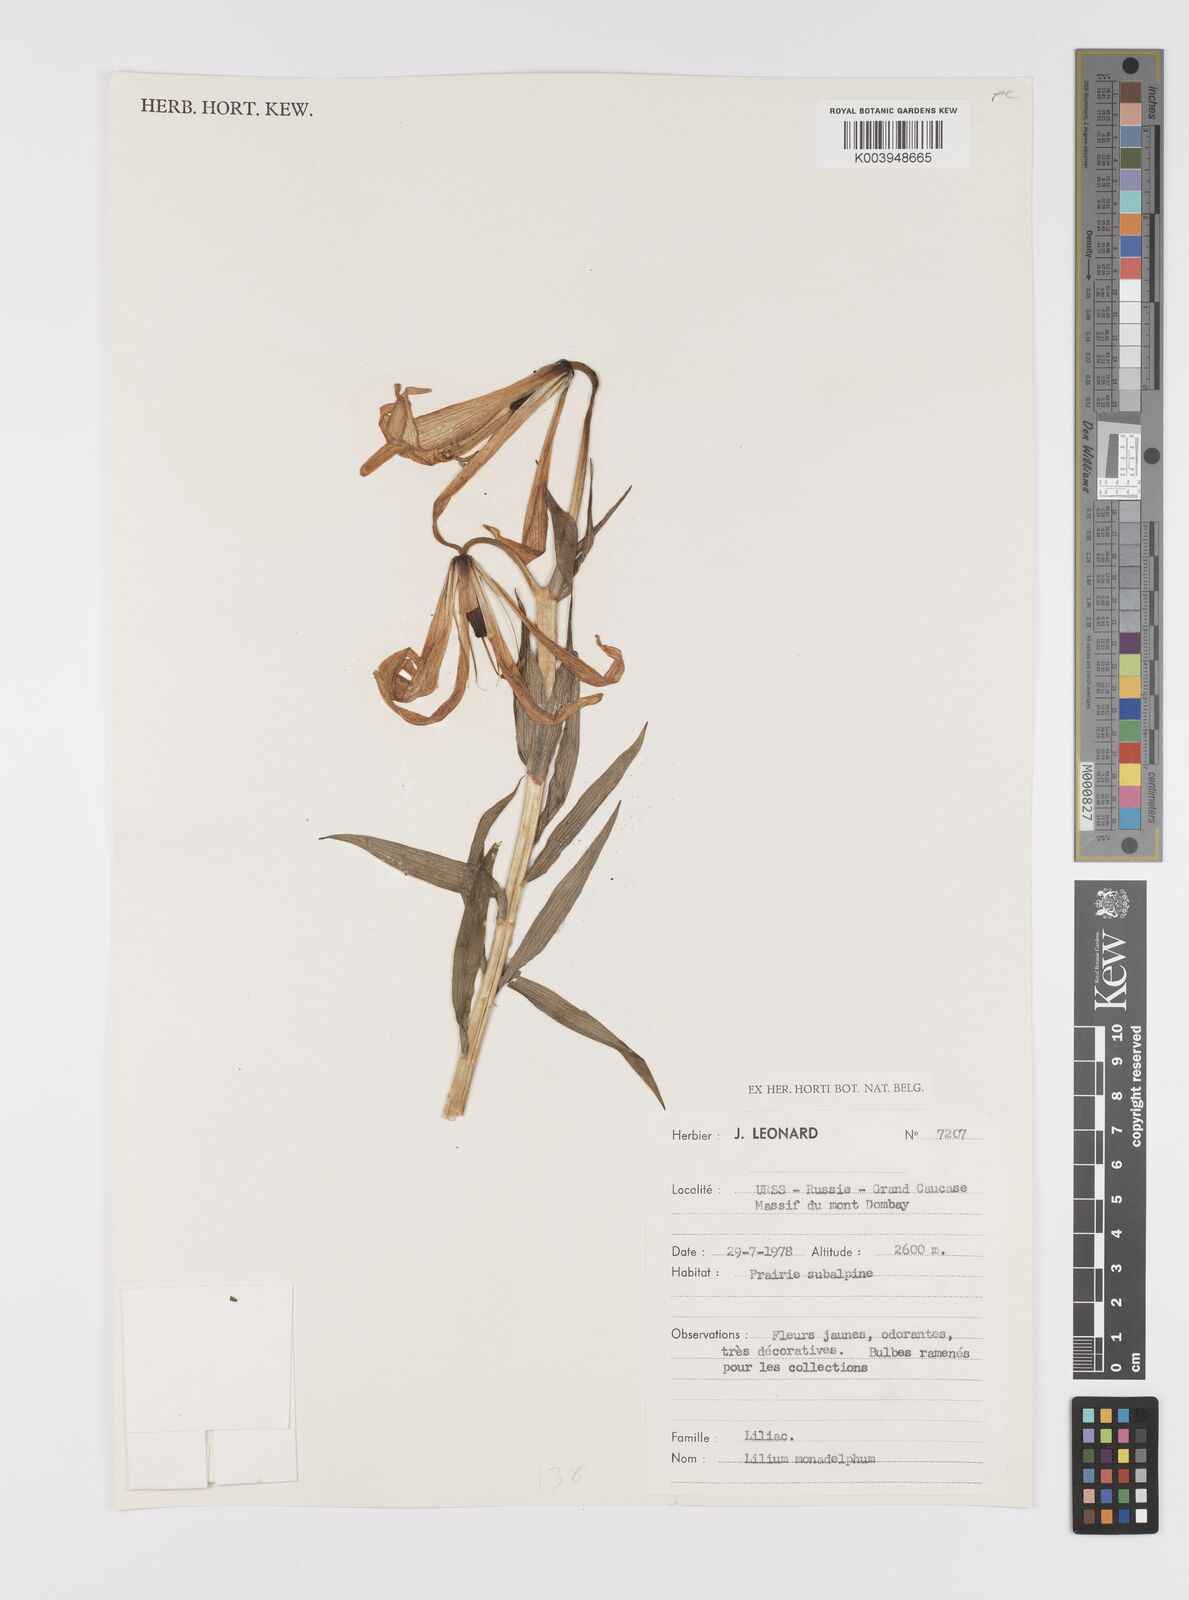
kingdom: Plantae
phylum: Tracheophyta
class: Liliopsida
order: Liliales
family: Liliaceae
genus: Lilium
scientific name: Lilium monadelphum
